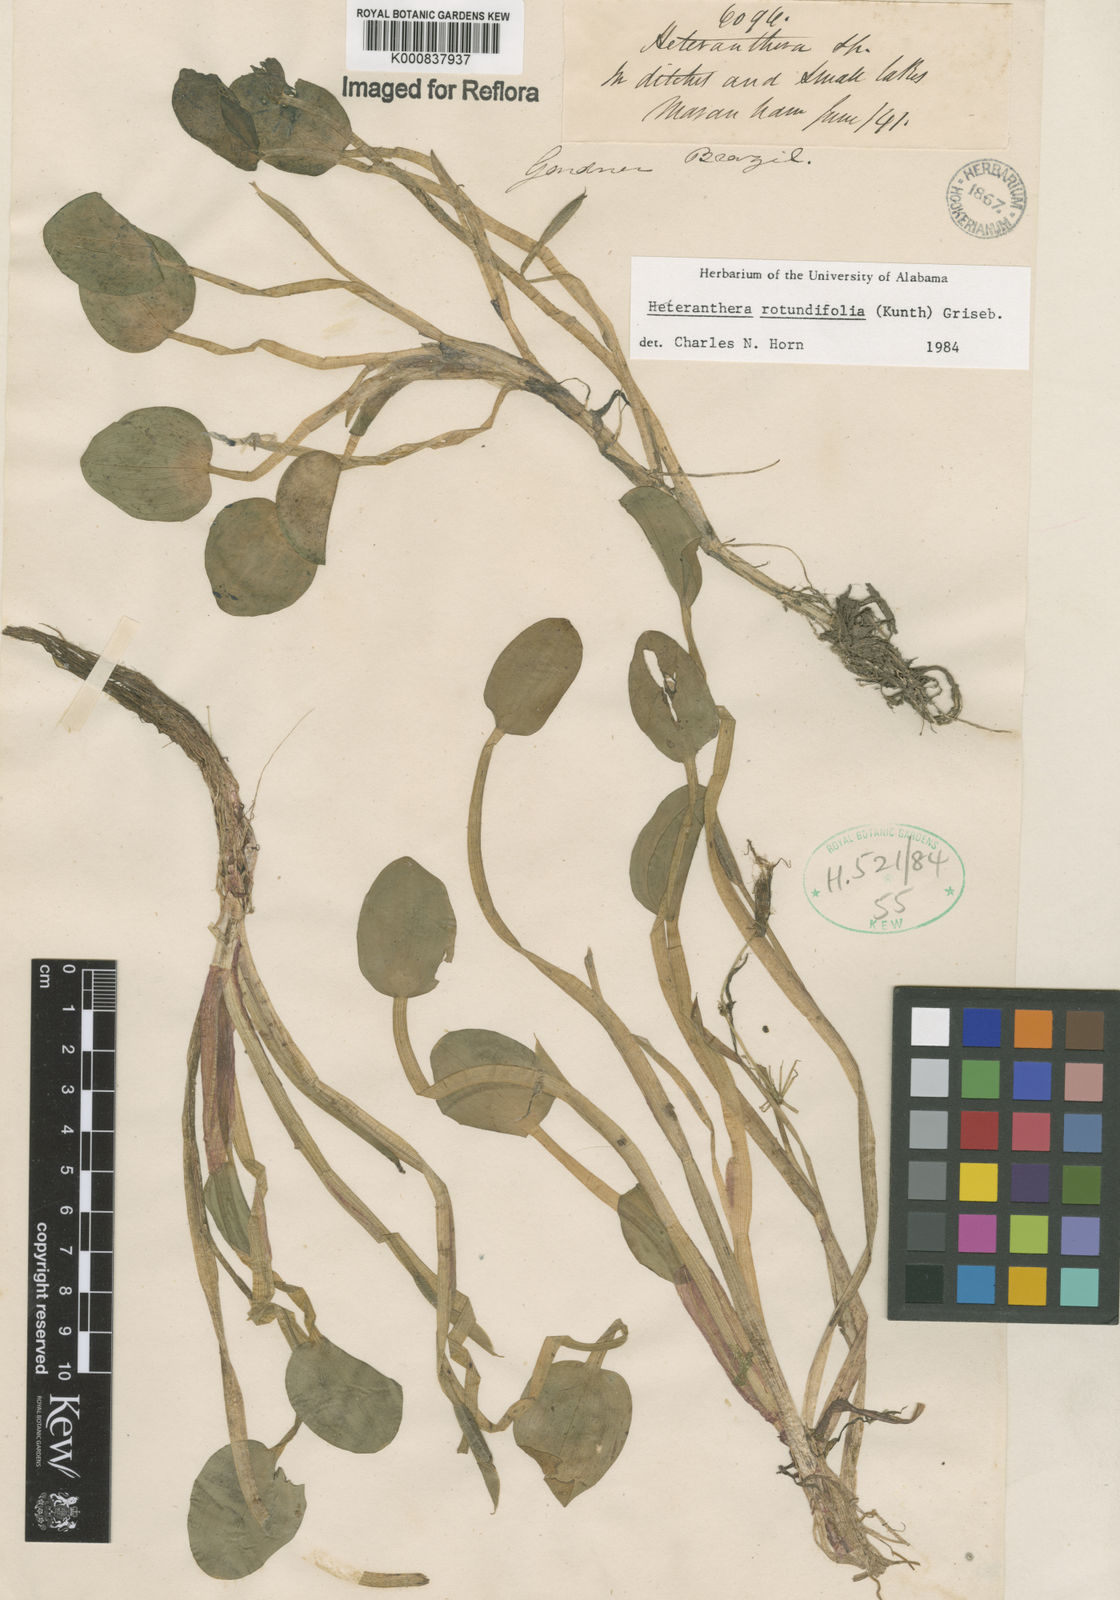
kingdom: Plantae
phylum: Tracheophyta
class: Liliopsida
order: Commelinales
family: Pontederiaceae
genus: Heteranthera
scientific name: Heteranthera rotundifolia
